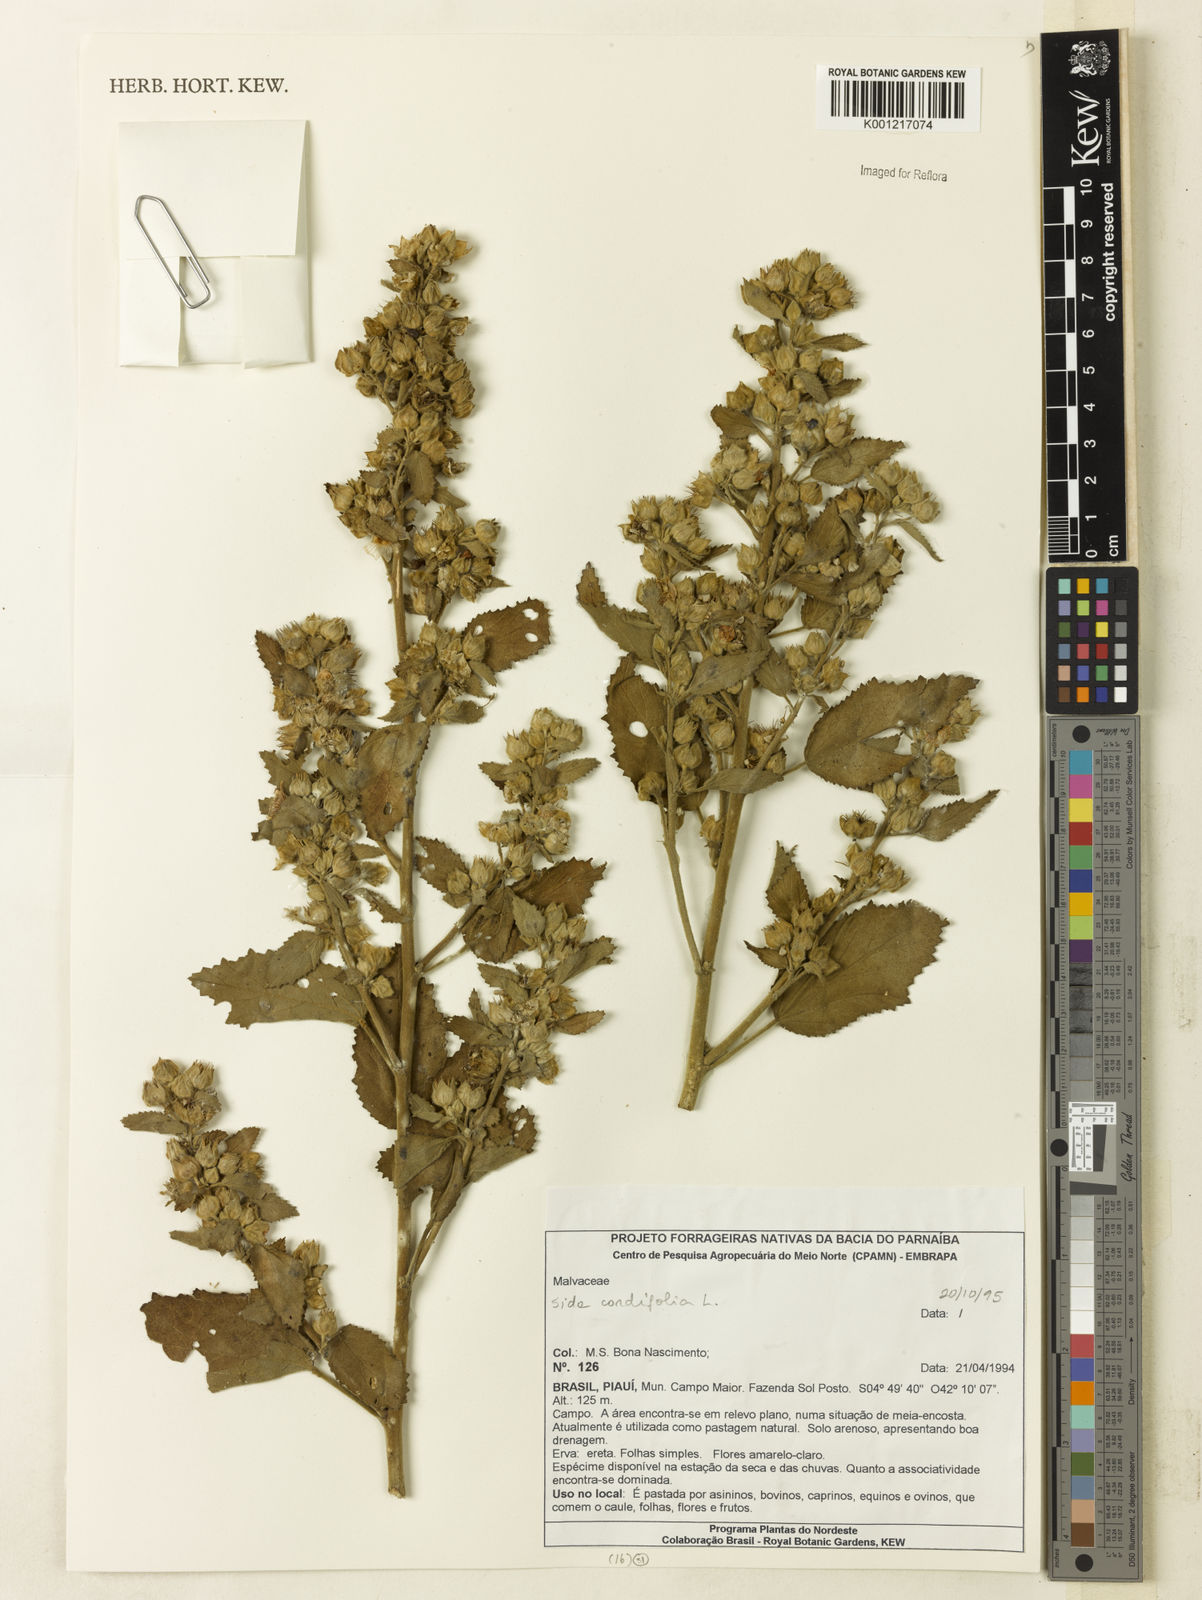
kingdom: Plantae
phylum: Tracheophyta
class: Magnoliopsida
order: Malvales
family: Malvaceae
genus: Sida
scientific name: Sida cordifolia
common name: Ilima
